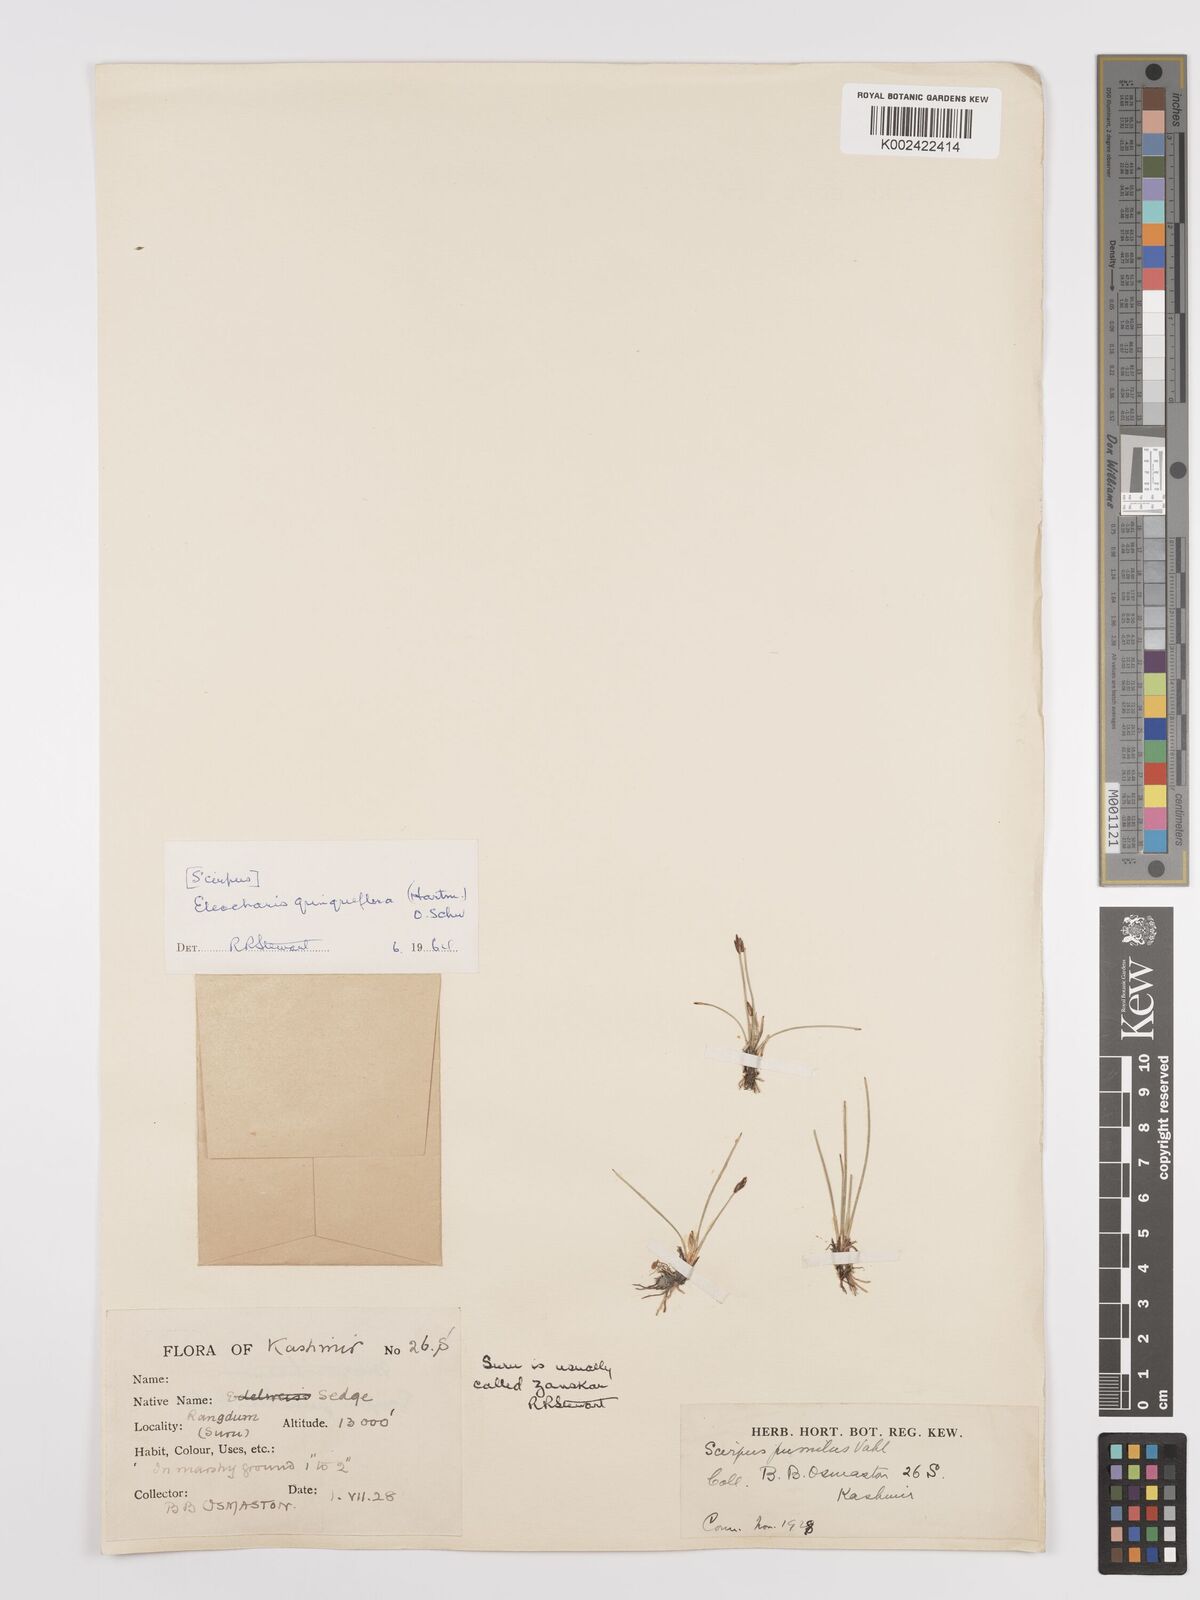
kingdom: Plantae
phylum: Tracheophyta
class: Liliopsida
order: Poales
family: Cyperaceae
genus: Eleocharis
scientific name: Eleocharis quinqueflora
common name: Few-flowered spike-rush
